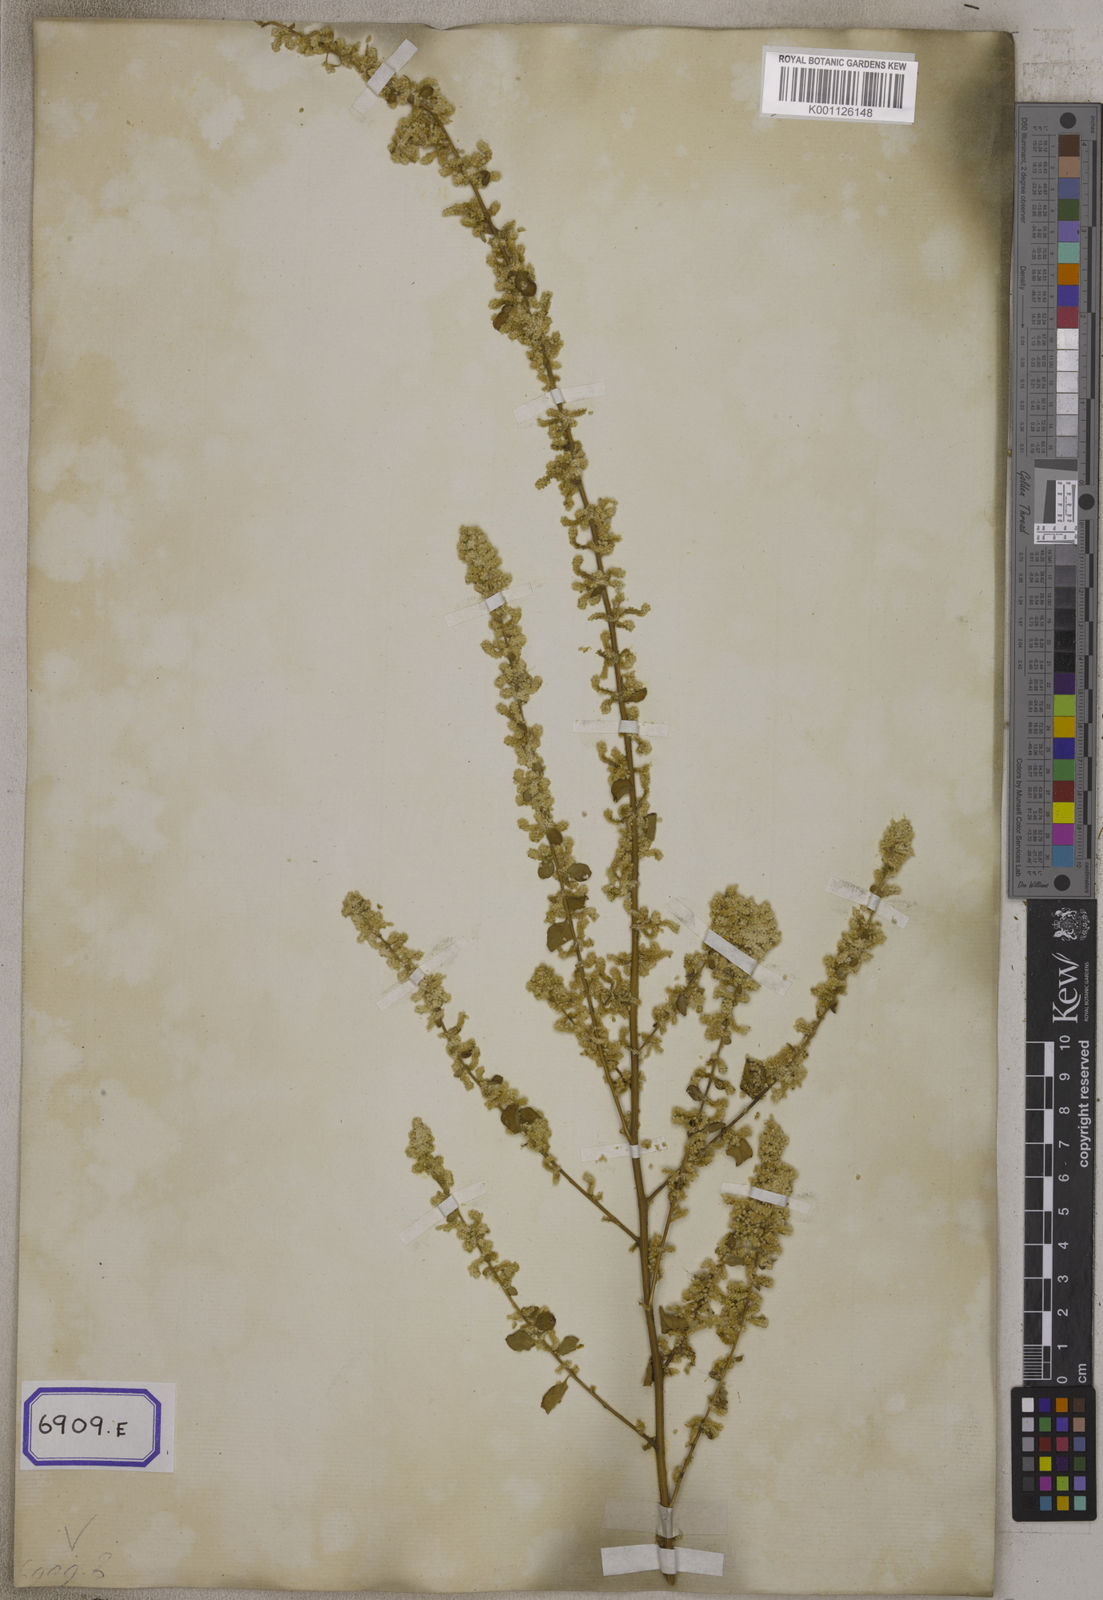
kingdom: Plantae
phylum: Tracheophyta
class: Magnoliopsida
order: Caryophyllales
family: Amaranthaceae
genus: Aerva
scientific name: Aerva
